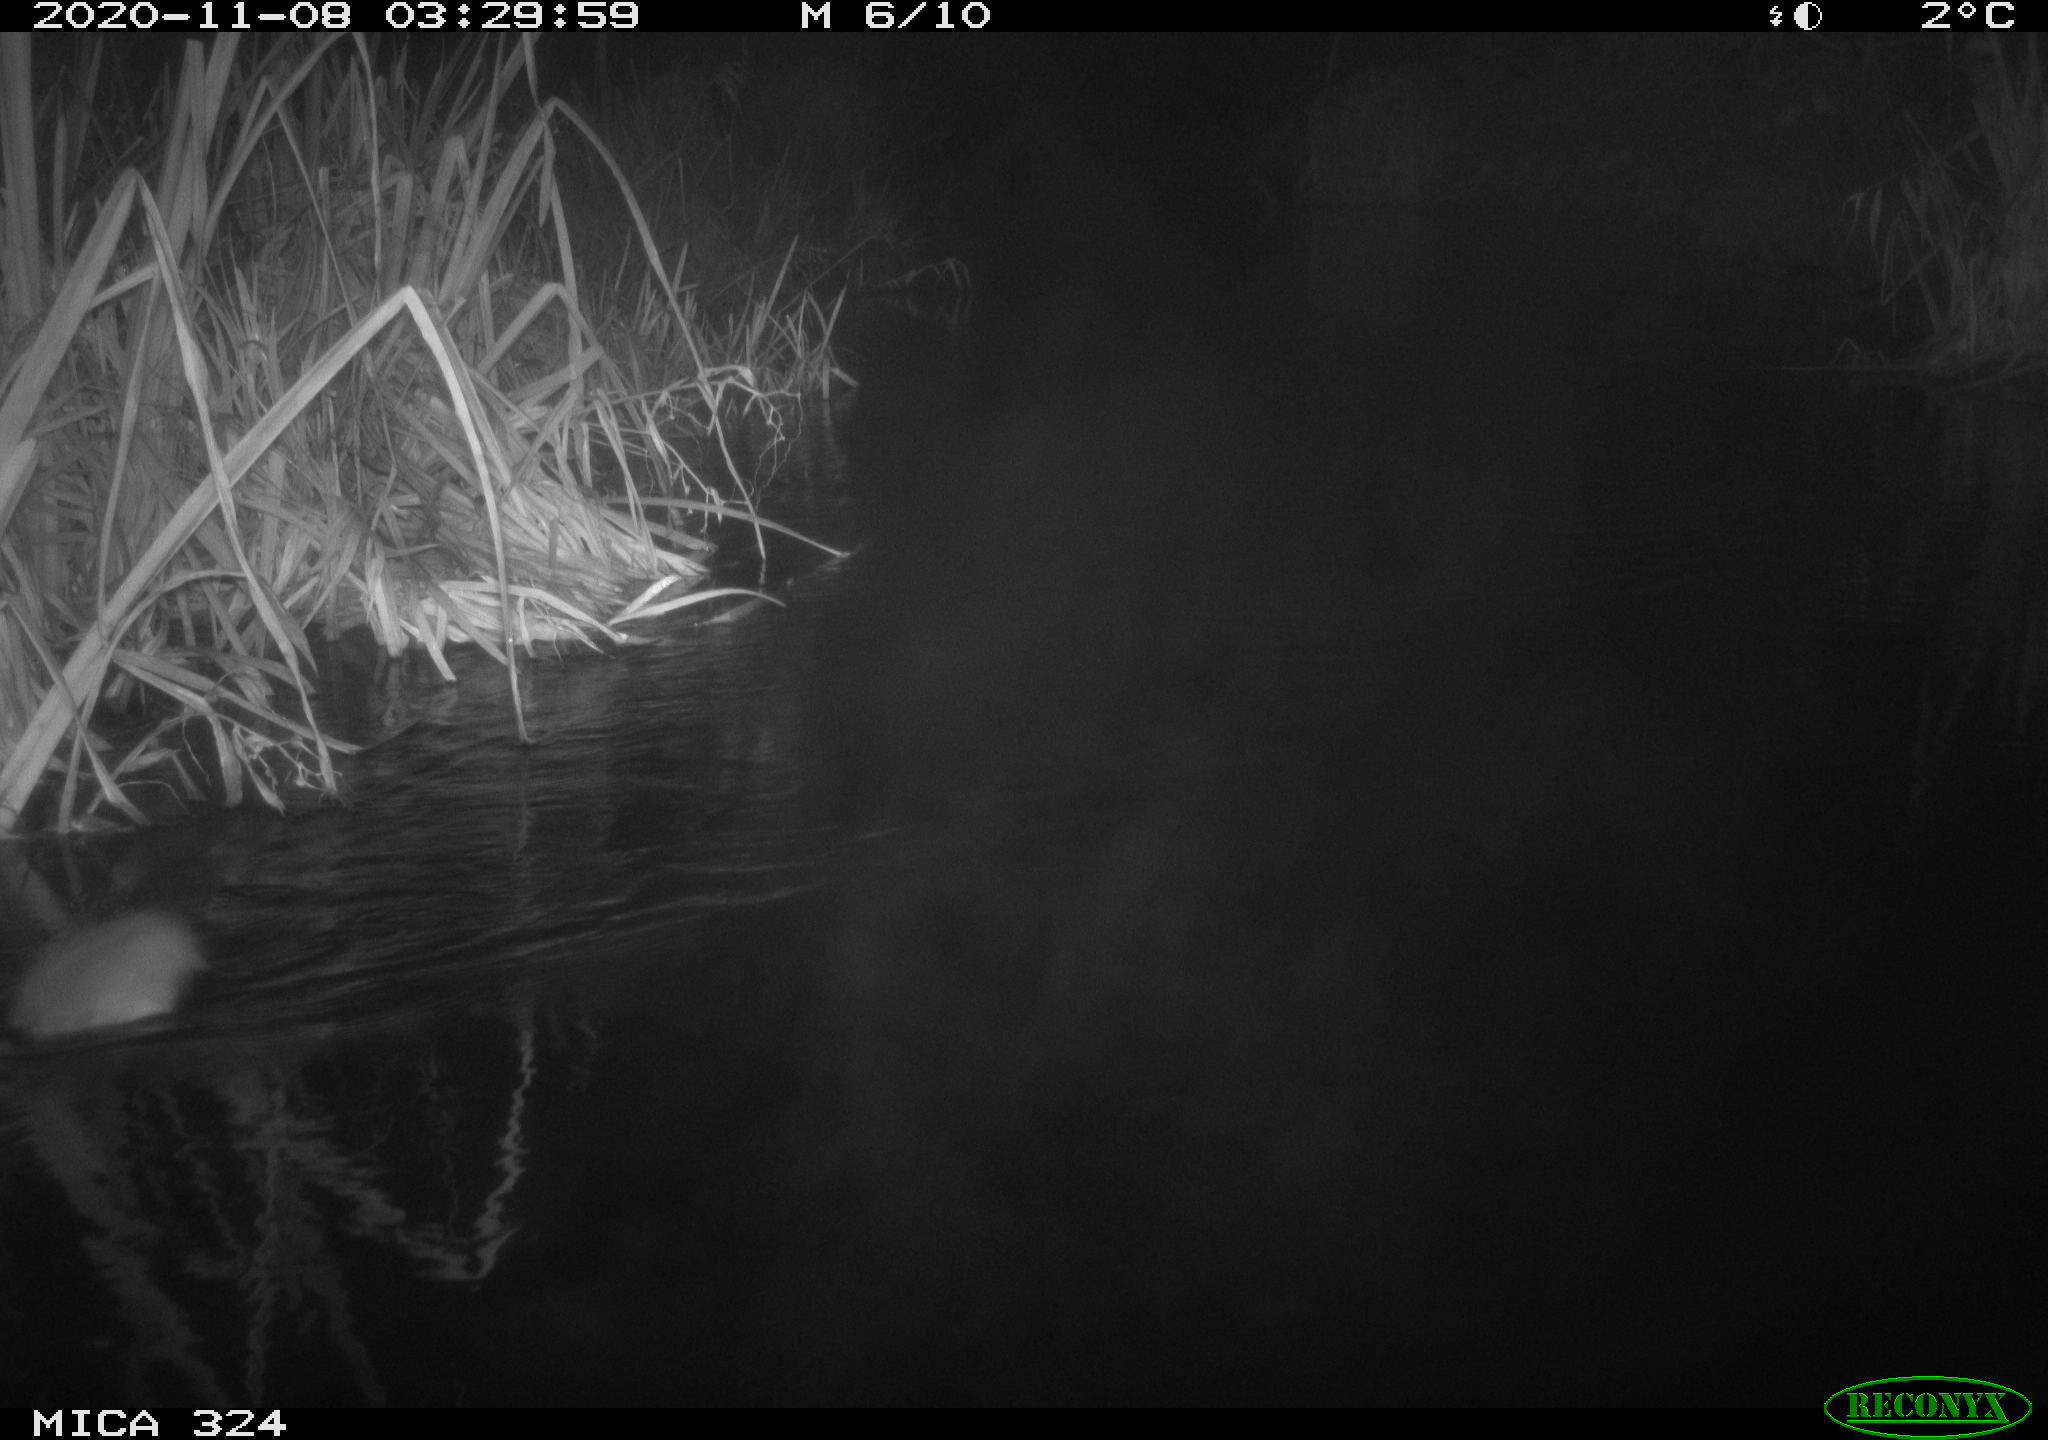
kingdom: Animalia
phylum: Chordata
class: Mammalia
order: Rodentia
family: Cricetidae
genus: Ondatra
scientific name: Ondatra zibethicus
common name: Muskrat
